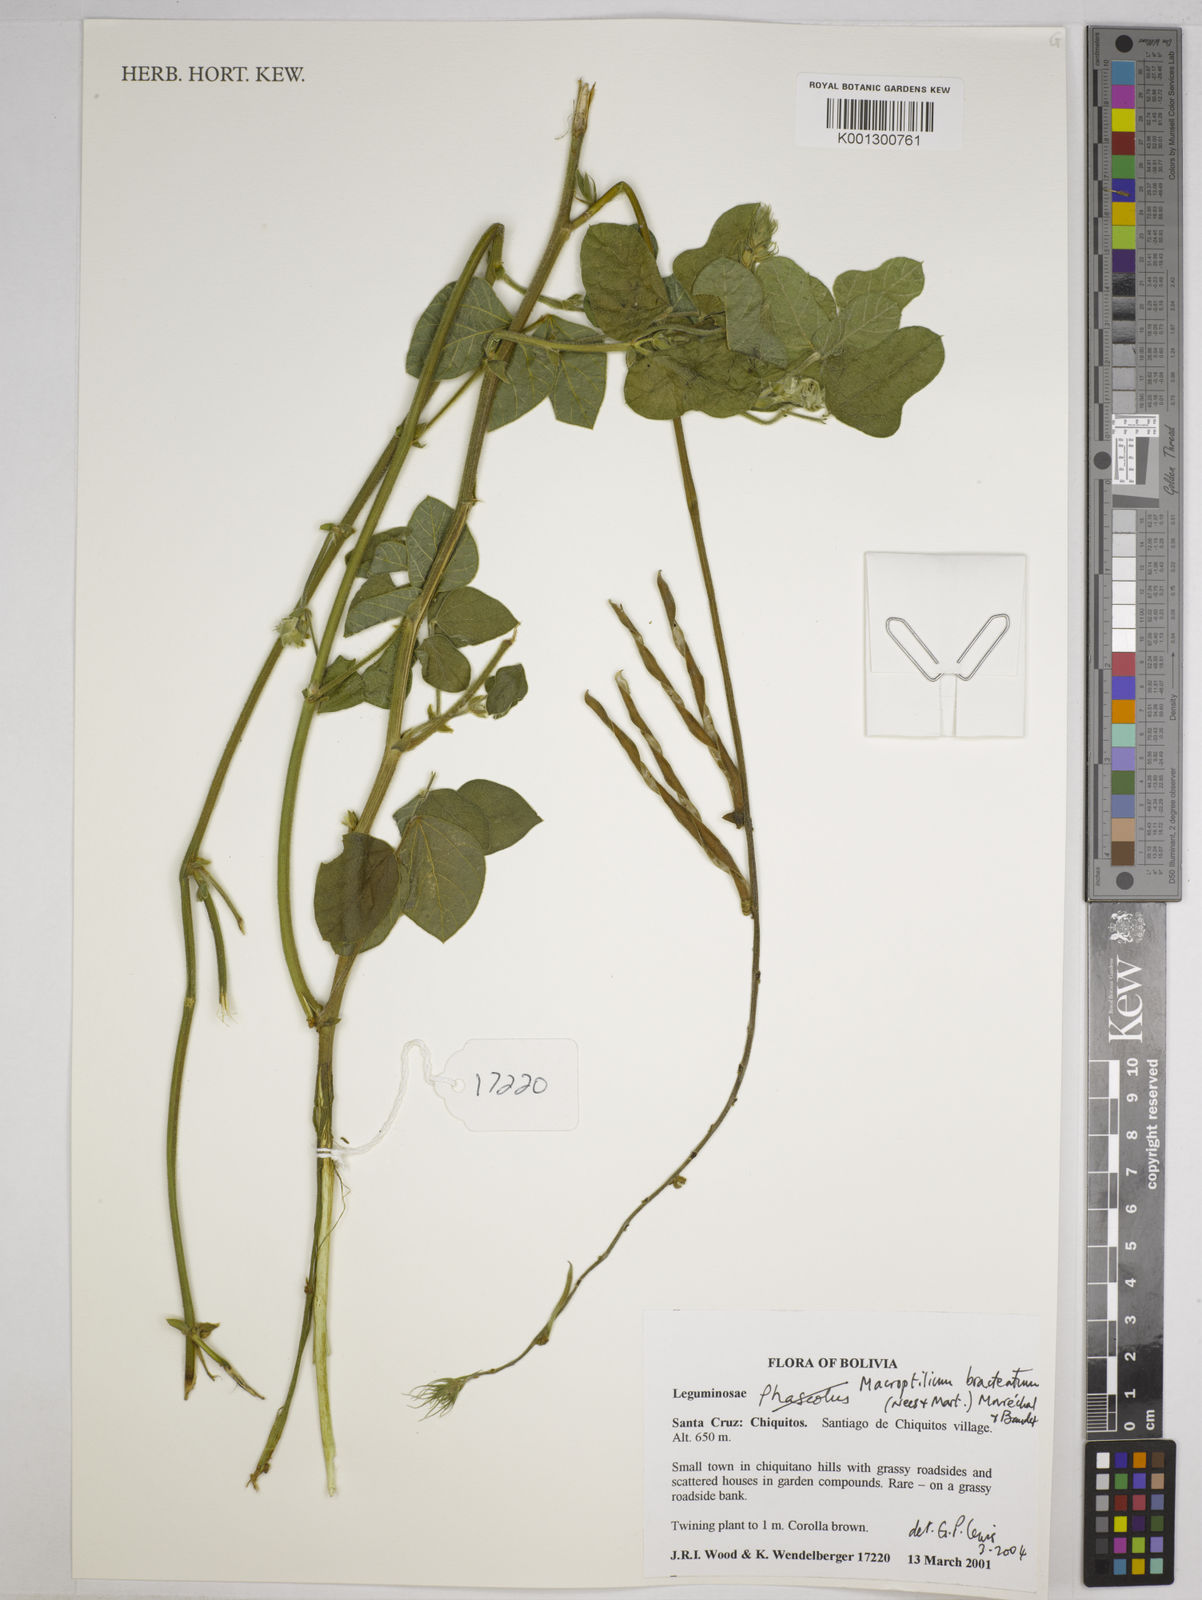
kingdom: Plantae
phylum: Tracheophyta
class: Magnoliopsida
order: Fabales
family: Fabaceae
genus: Macroptilium
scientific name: Macroptilium bracteatum
